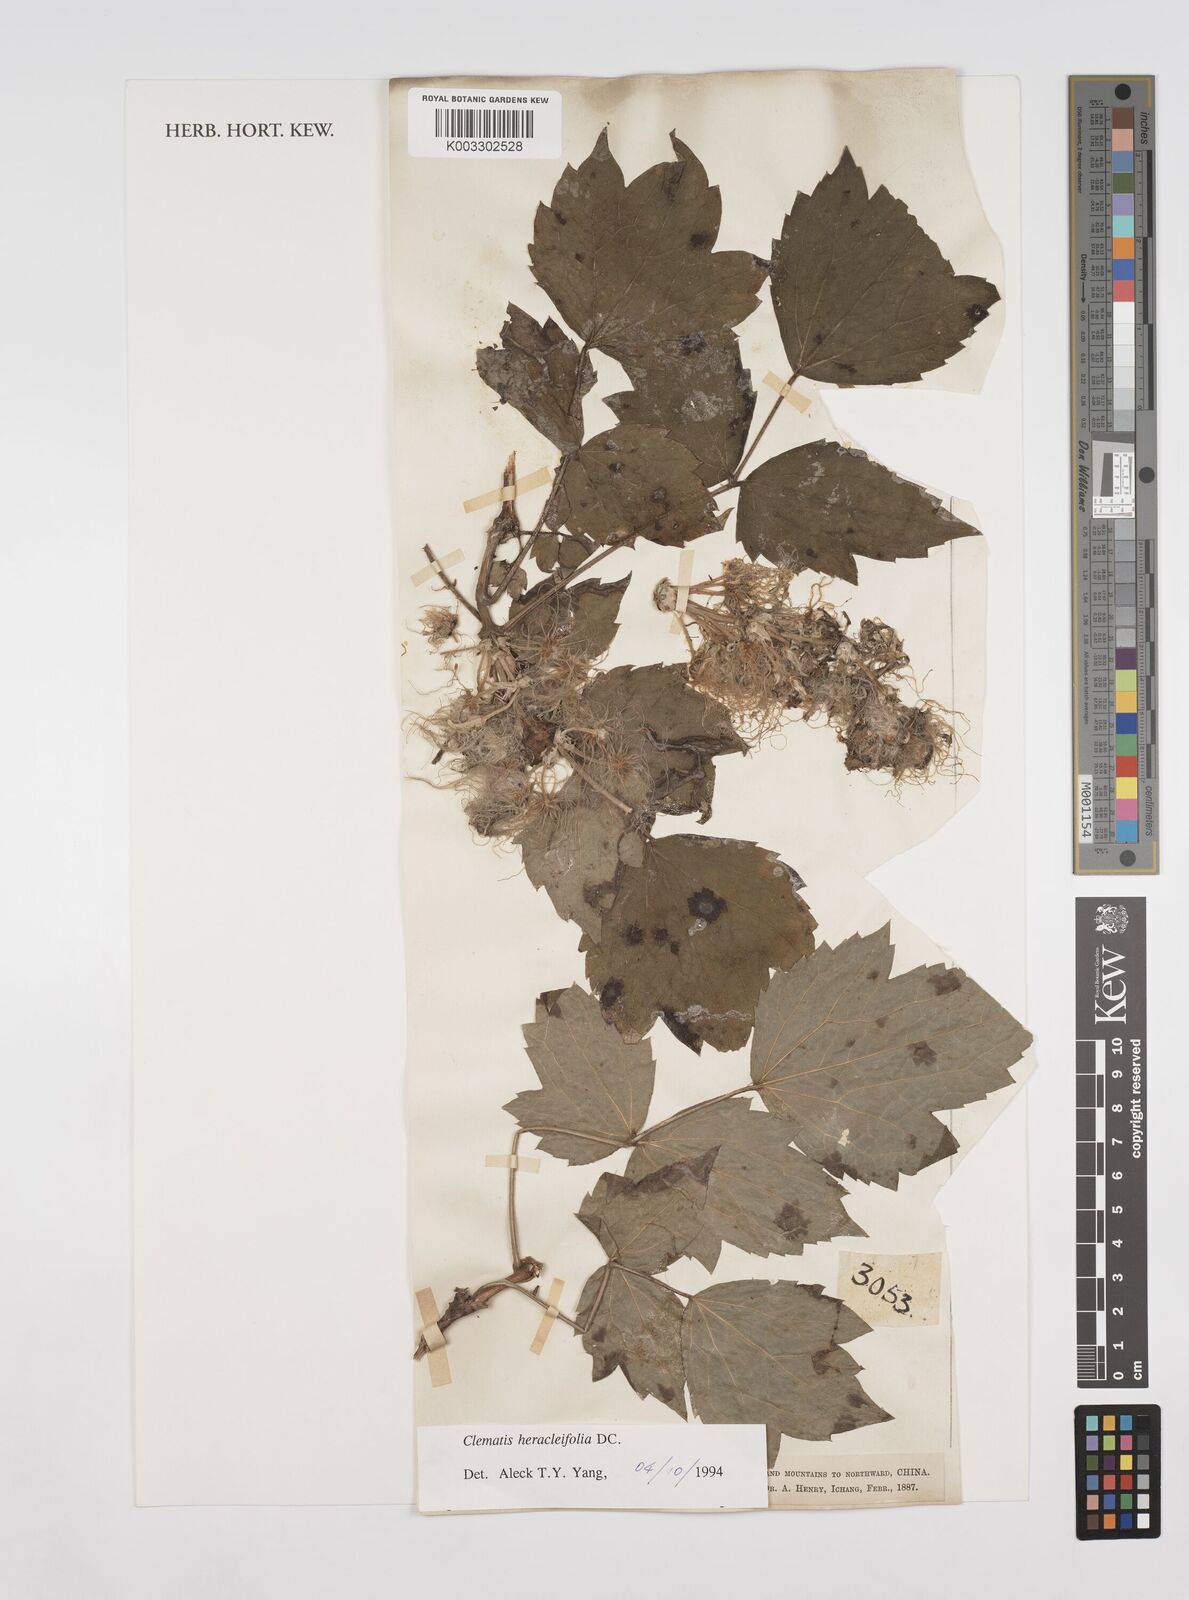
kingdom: Plantae
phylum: Tracheophyta
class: Magnoliopsida
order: Ranunculales
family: Ranunculaceae
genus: Clematis
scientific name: Clematis heracleifolia
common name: Hyacinth-flower clematis
